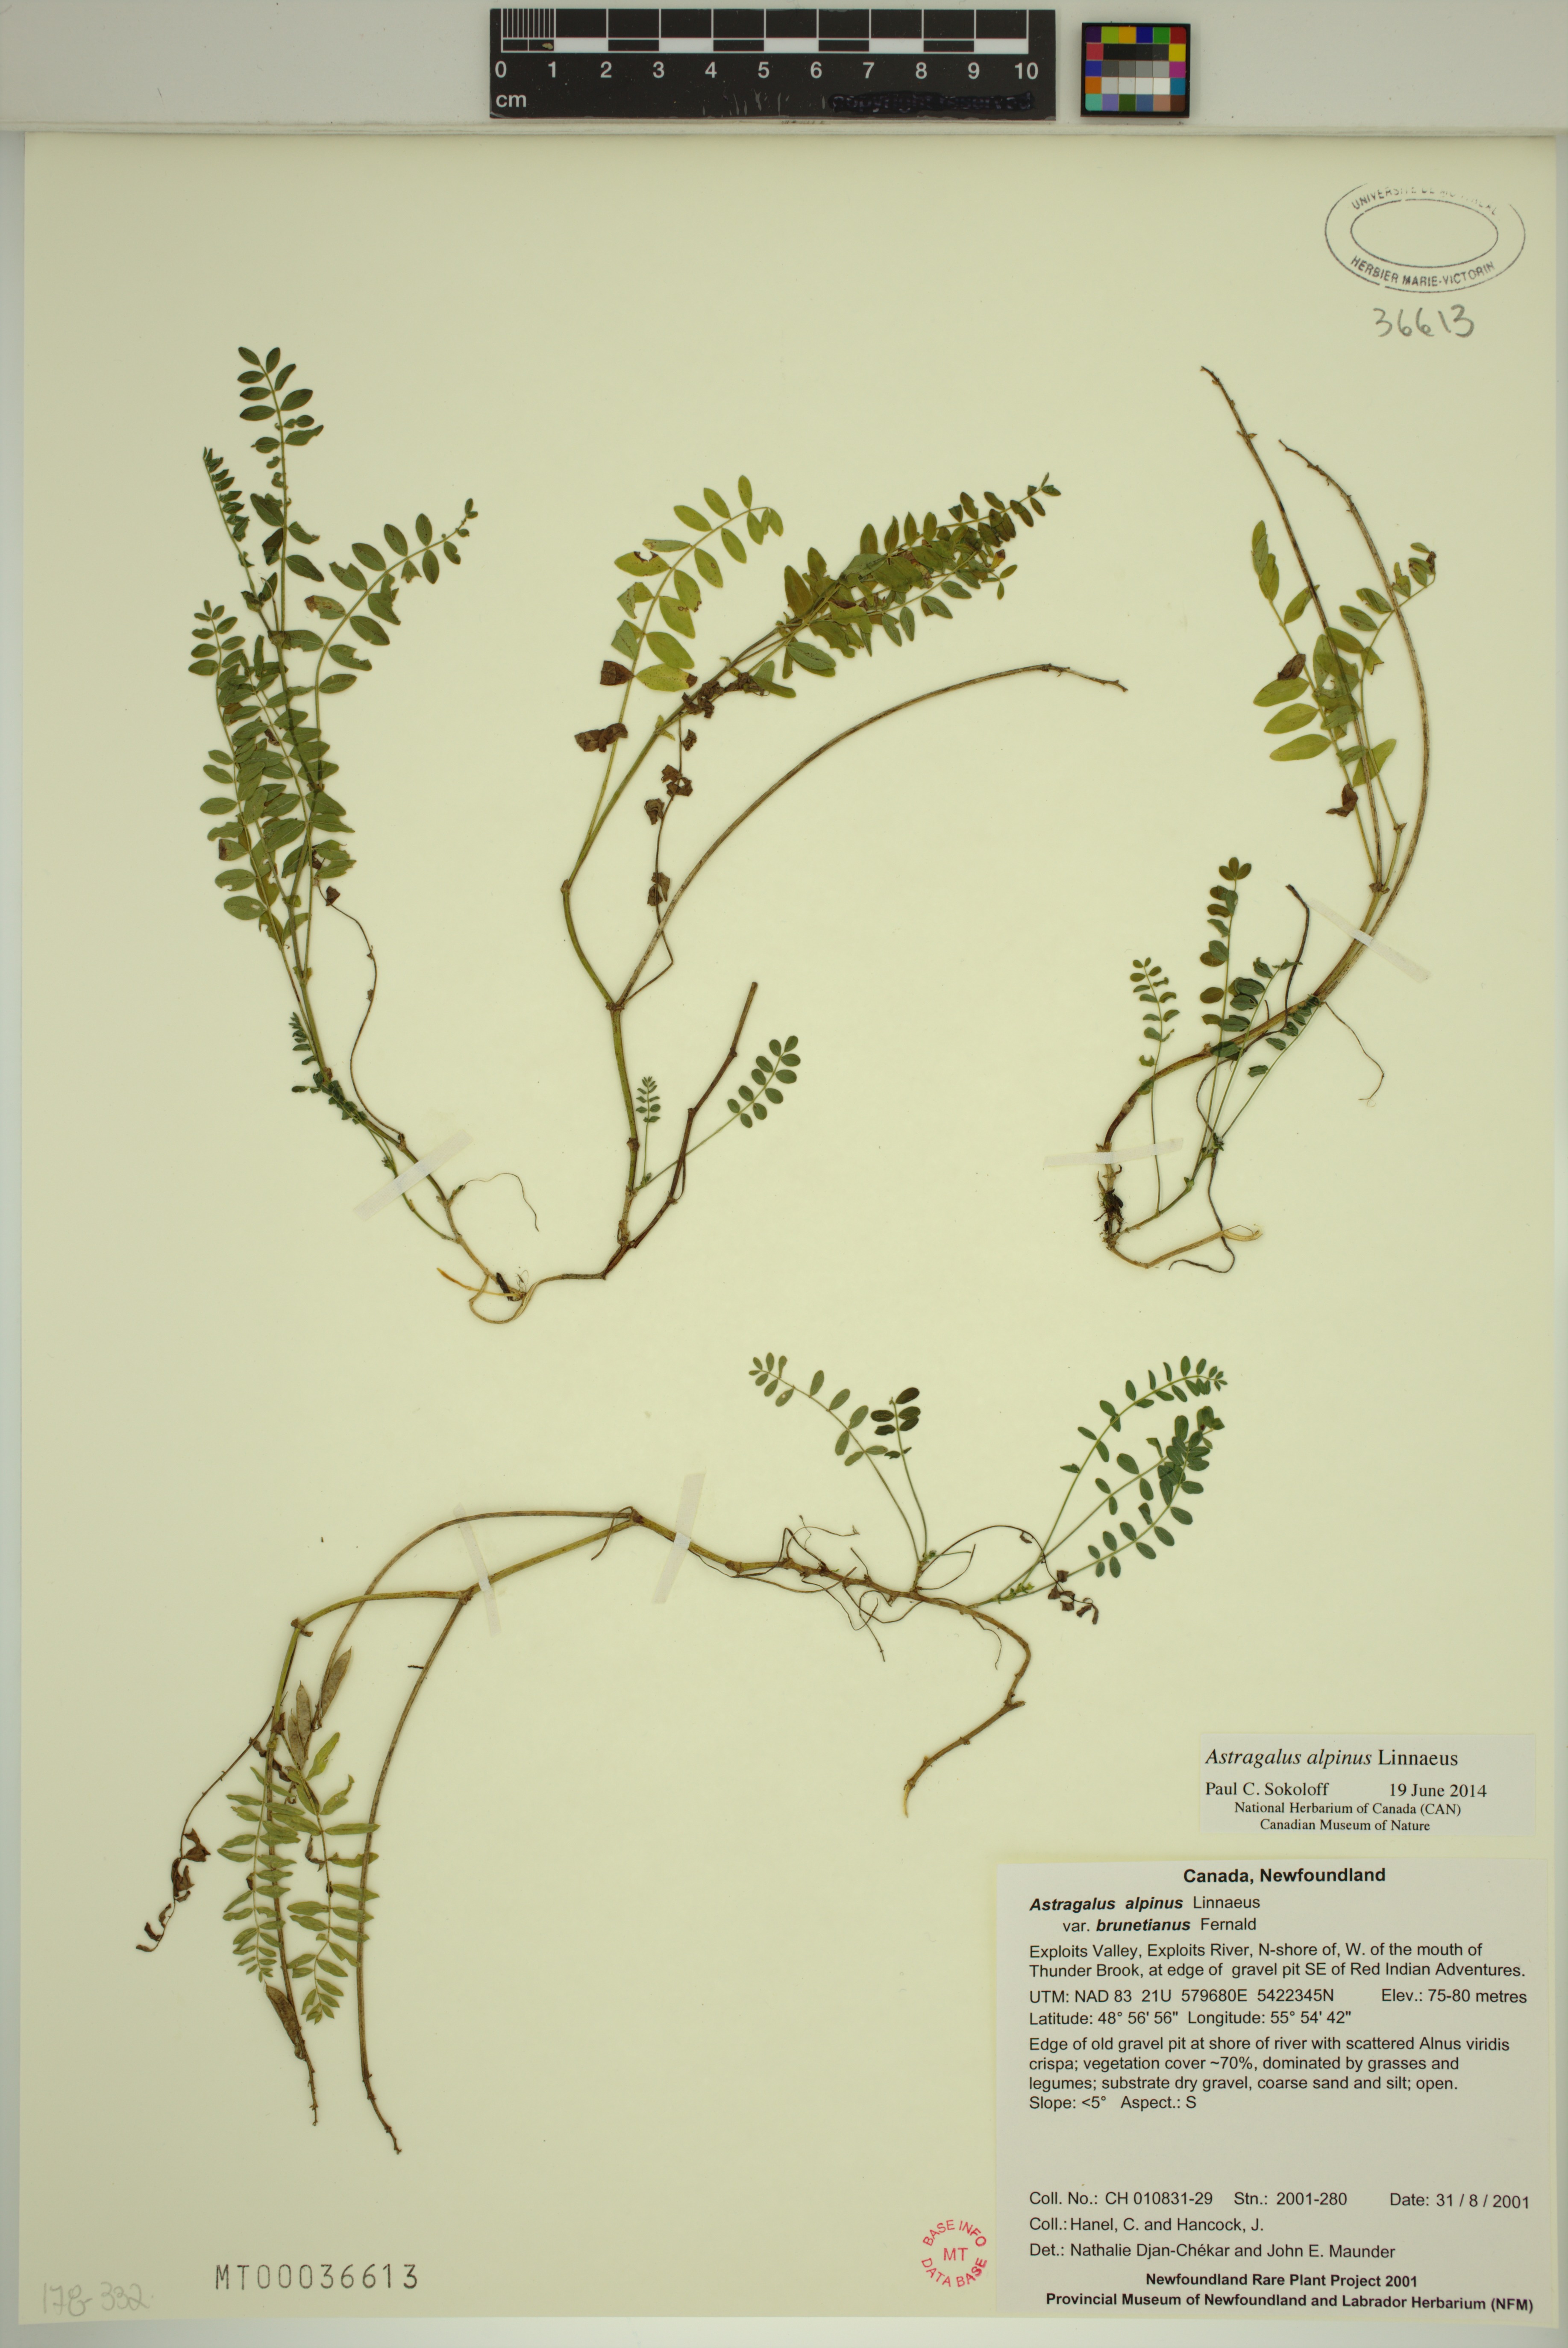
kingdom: Plantae
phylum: Tracheophyta
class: Magnoliopsida
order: Fabales
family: Fabaceae
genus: Astragalus
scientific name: Astragalus alpinus
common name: Alpine milk-vetch
